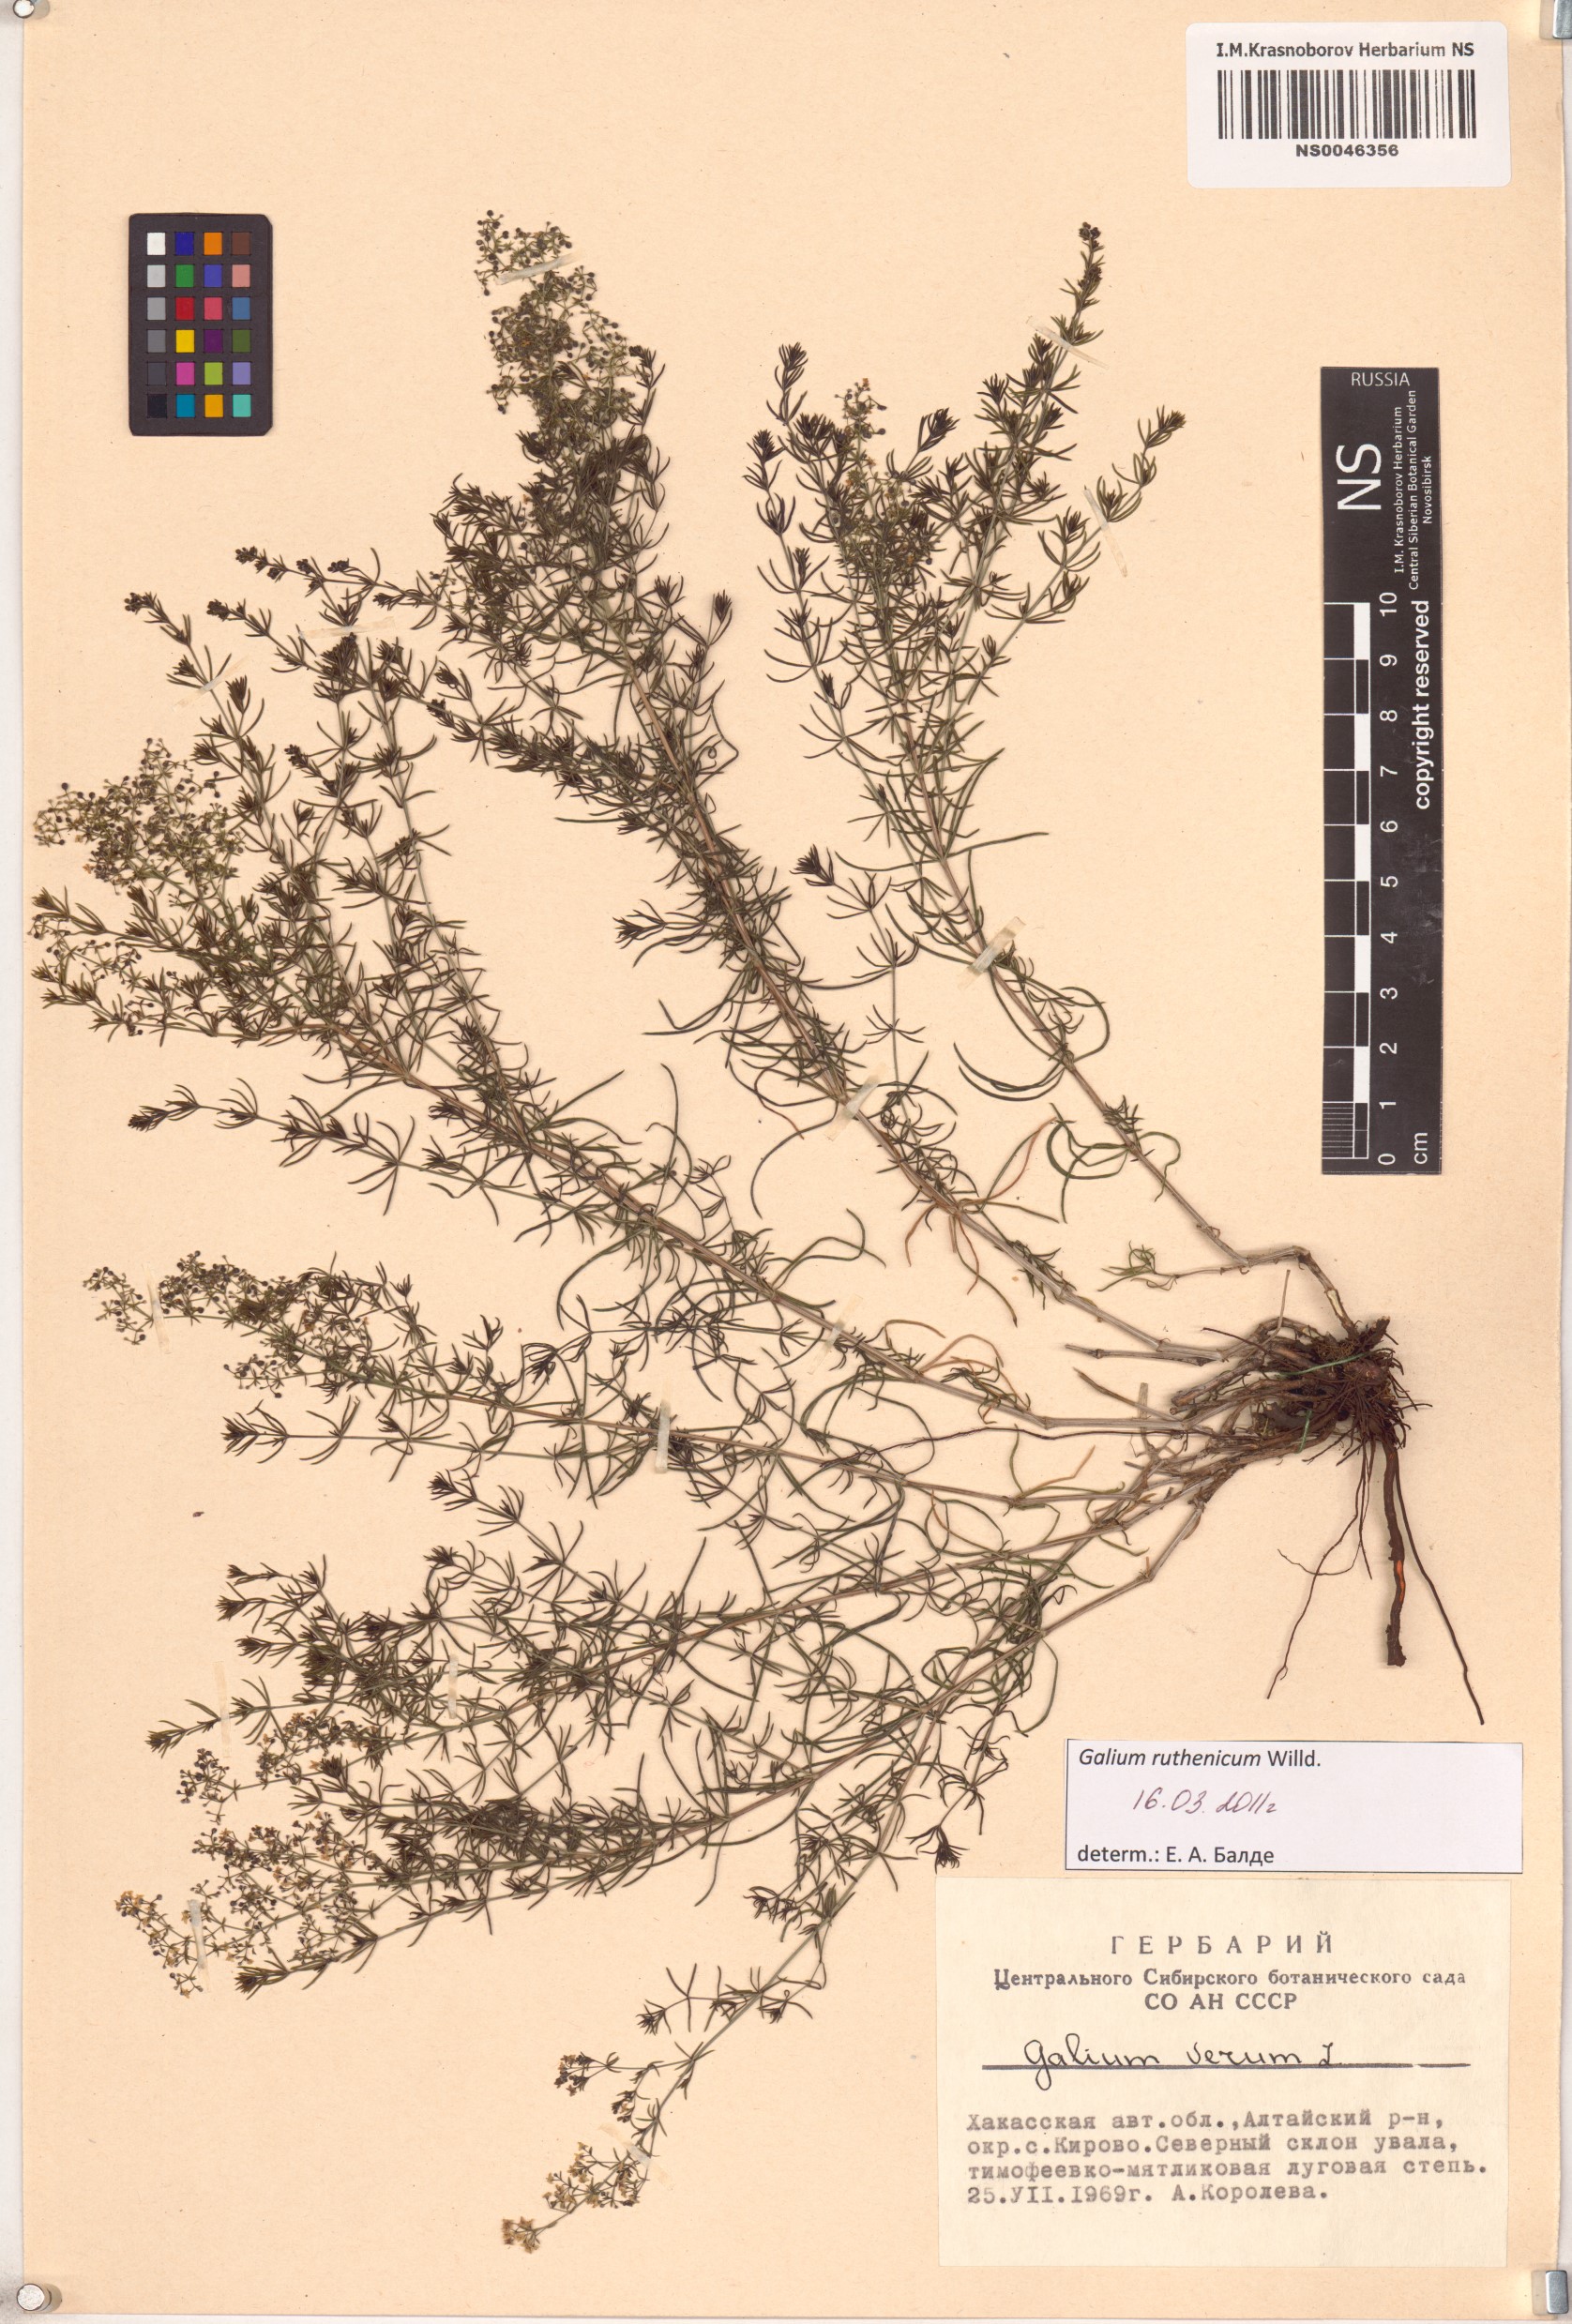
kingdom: Plantae
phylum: Tracheophyta
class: Magnoliopsida
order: Gentianales
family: Rubiaceae
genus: Galium
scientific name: Galium verum
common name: Lady's bedstraw
